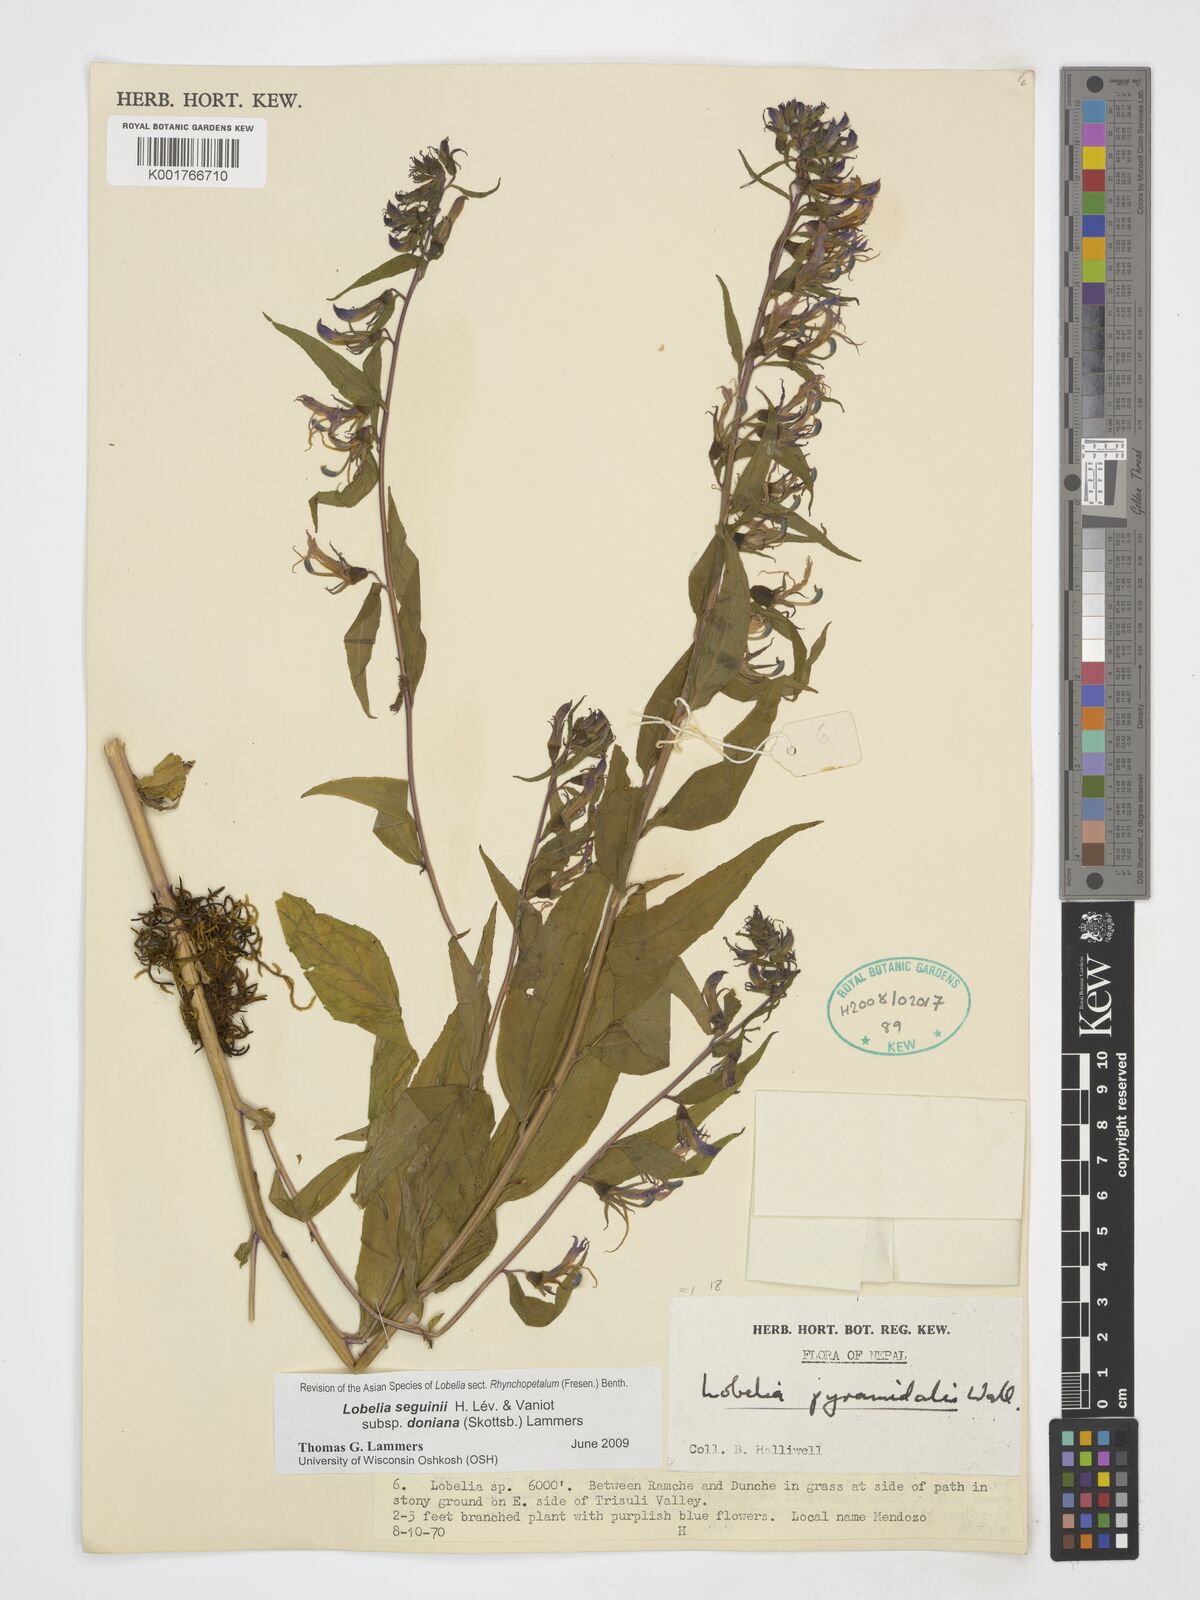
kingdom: Plantae
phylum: Tracheophyta
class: Magnoliopsida
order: Asterales
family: Campanulaceae
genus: Lobelia
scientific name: Lobelia seguinii
